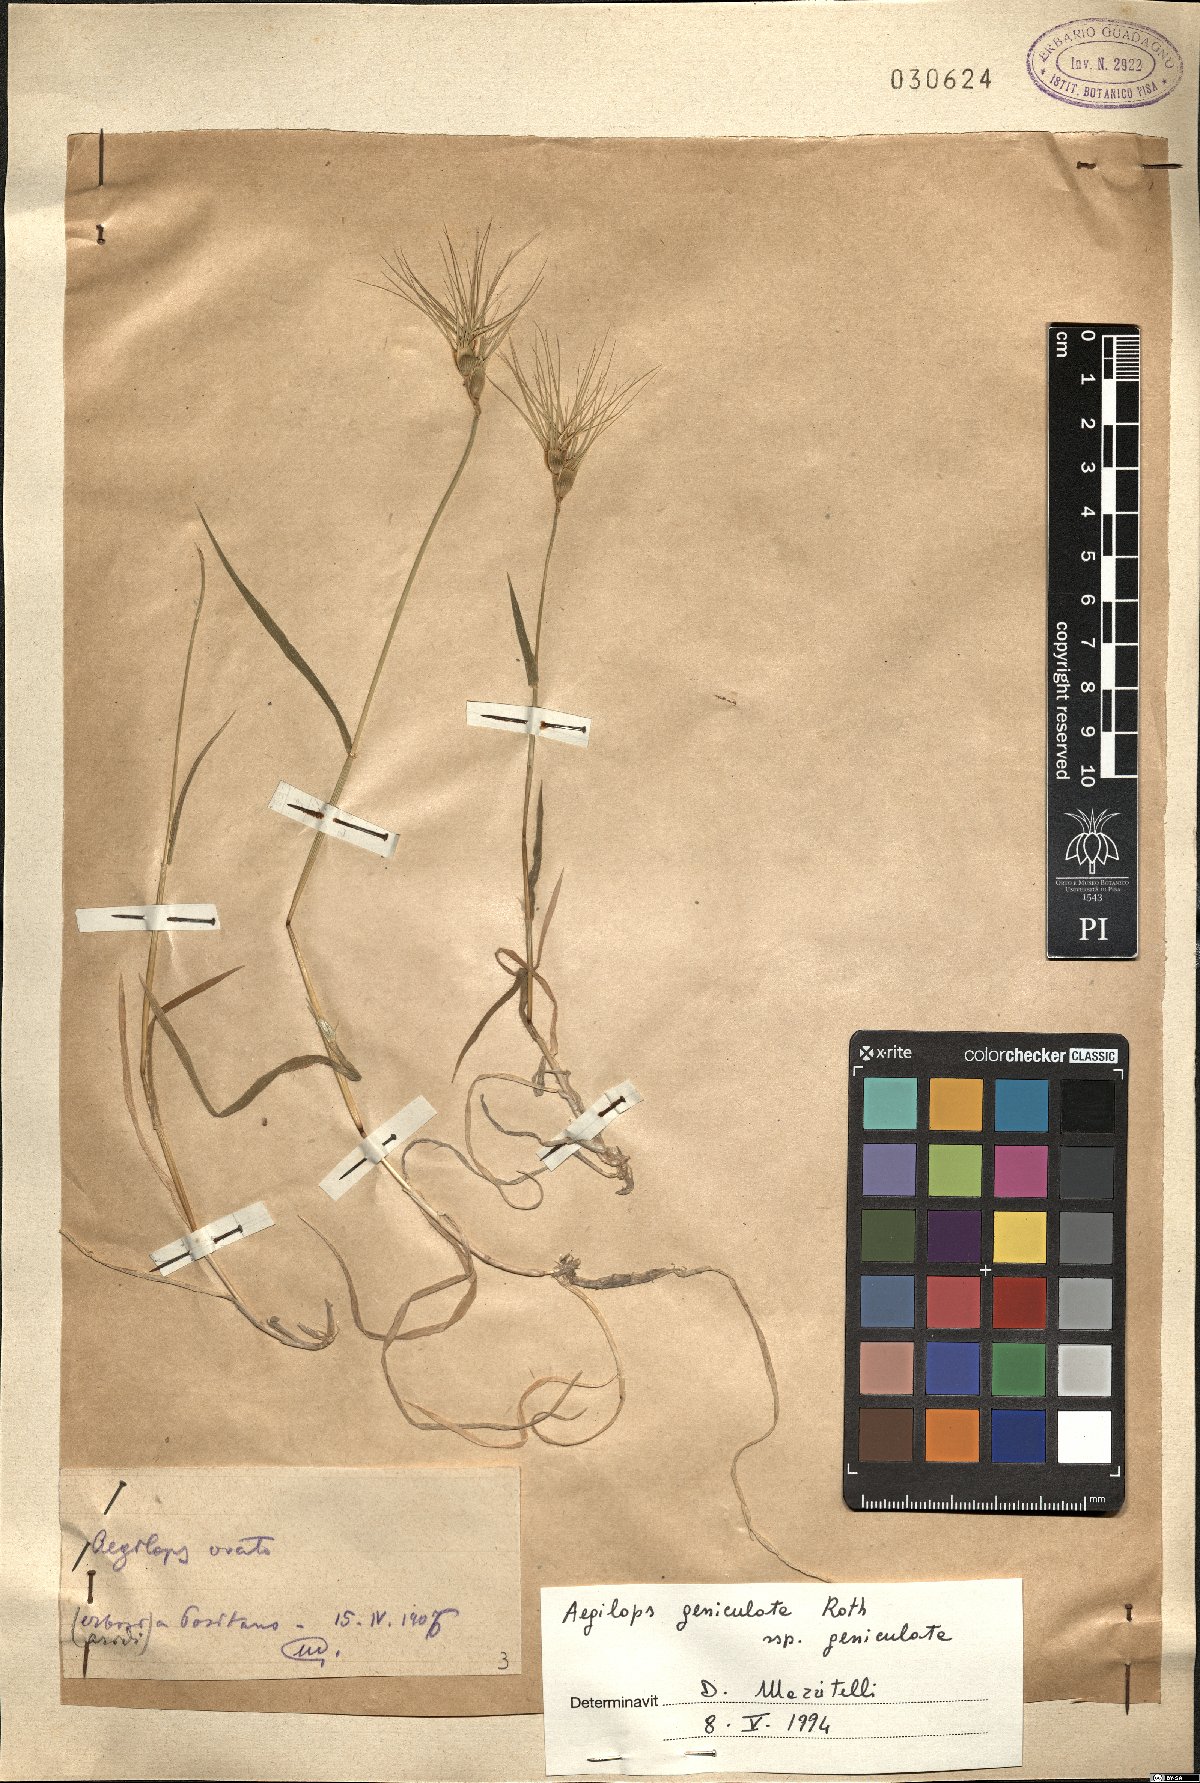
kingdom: Plantae
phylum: Tracheophyta
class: Liliopsida
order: Poales
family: Poaceae
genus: Aegilops
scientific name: Aegilops geniculata
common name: Ovate goat grass
